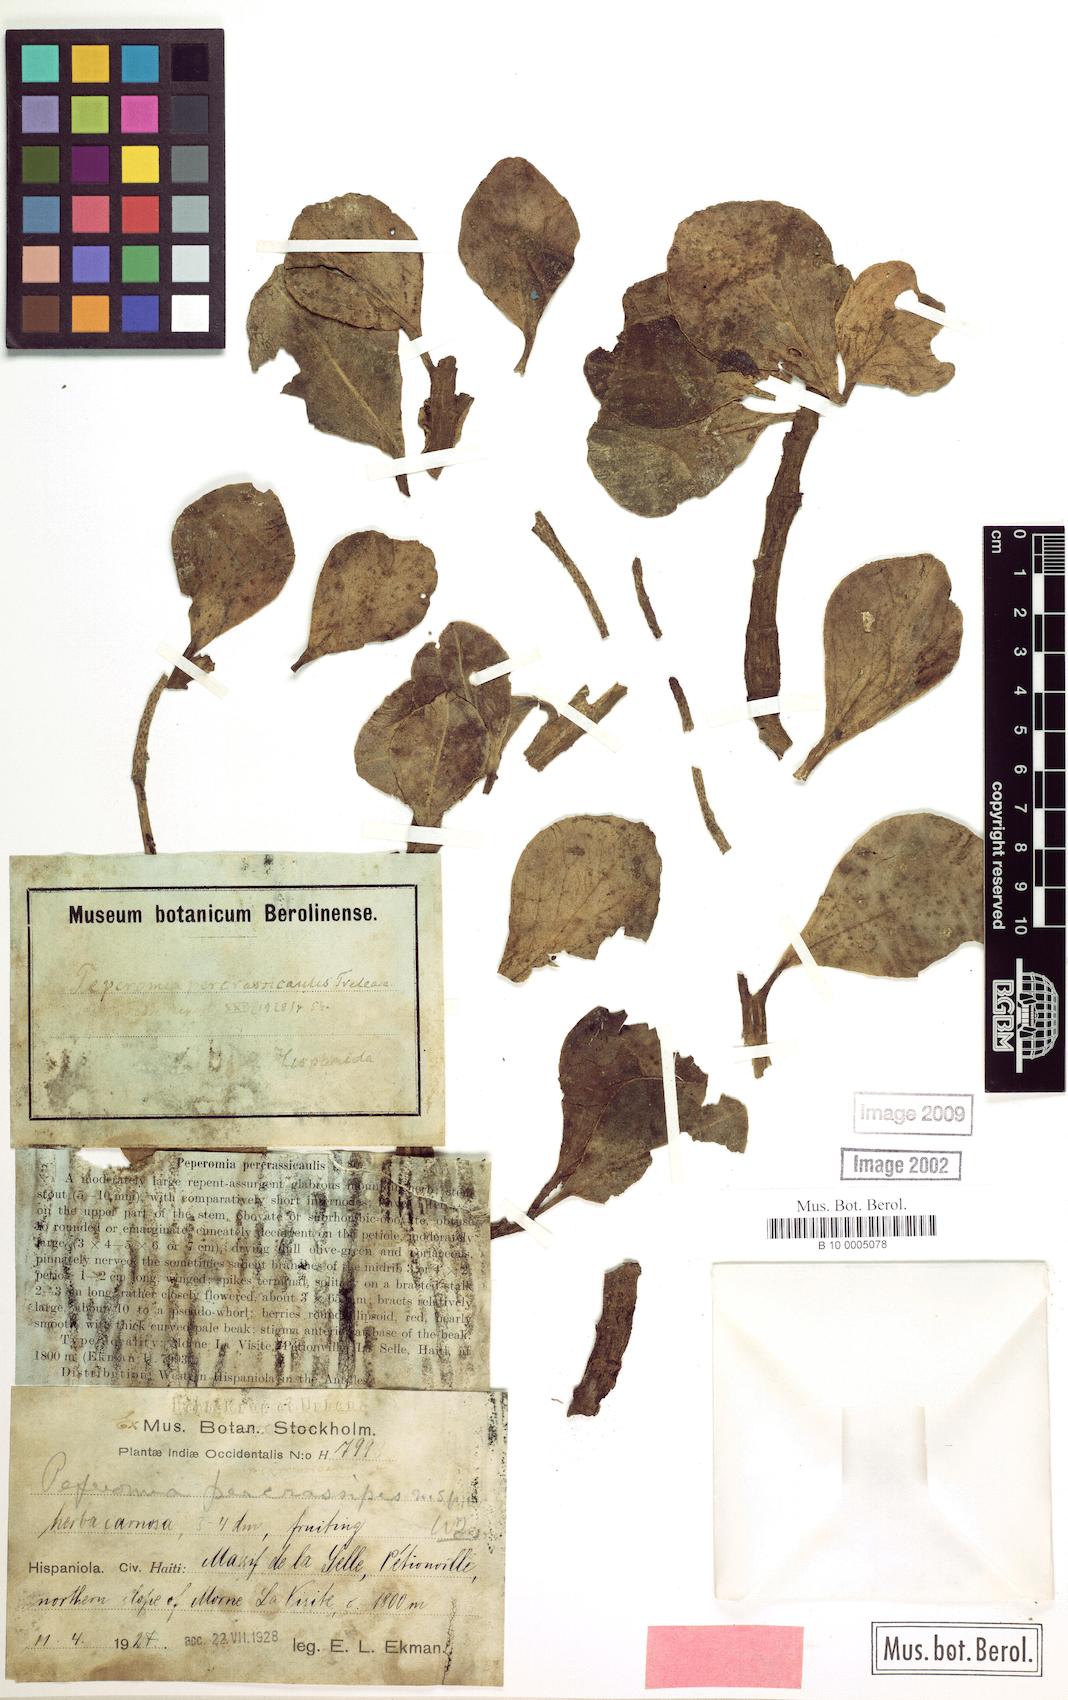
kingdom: Plantae
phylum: Tracheophyta
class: Magnoliopsida
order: Piperales
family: Piperaceae
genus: Peperomia
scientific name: Peperomia crassicaulis
